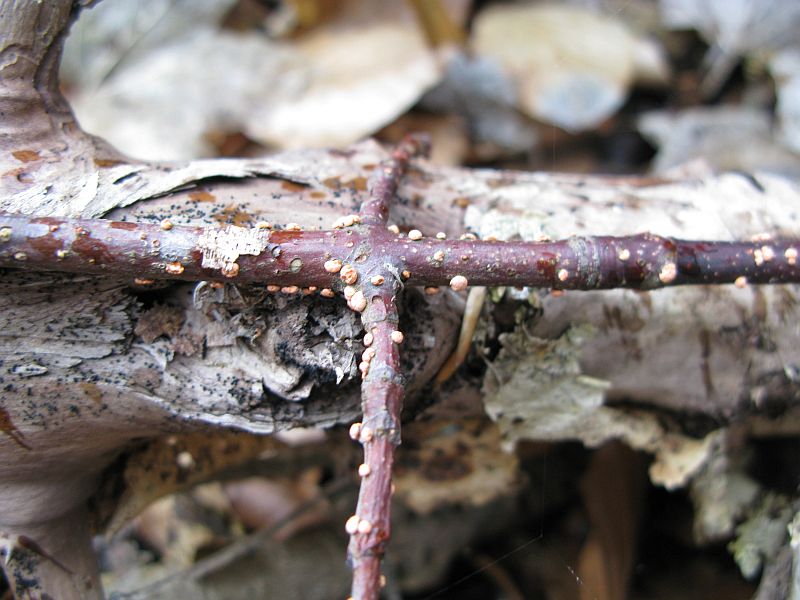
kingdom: Fungi
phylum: Ascomycota
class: Sordariomycetes
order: Hypocreales
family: Nectriaceae
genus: Nectria
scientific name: Nectria cinnabarina
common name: almindelig cinnobersvamp
